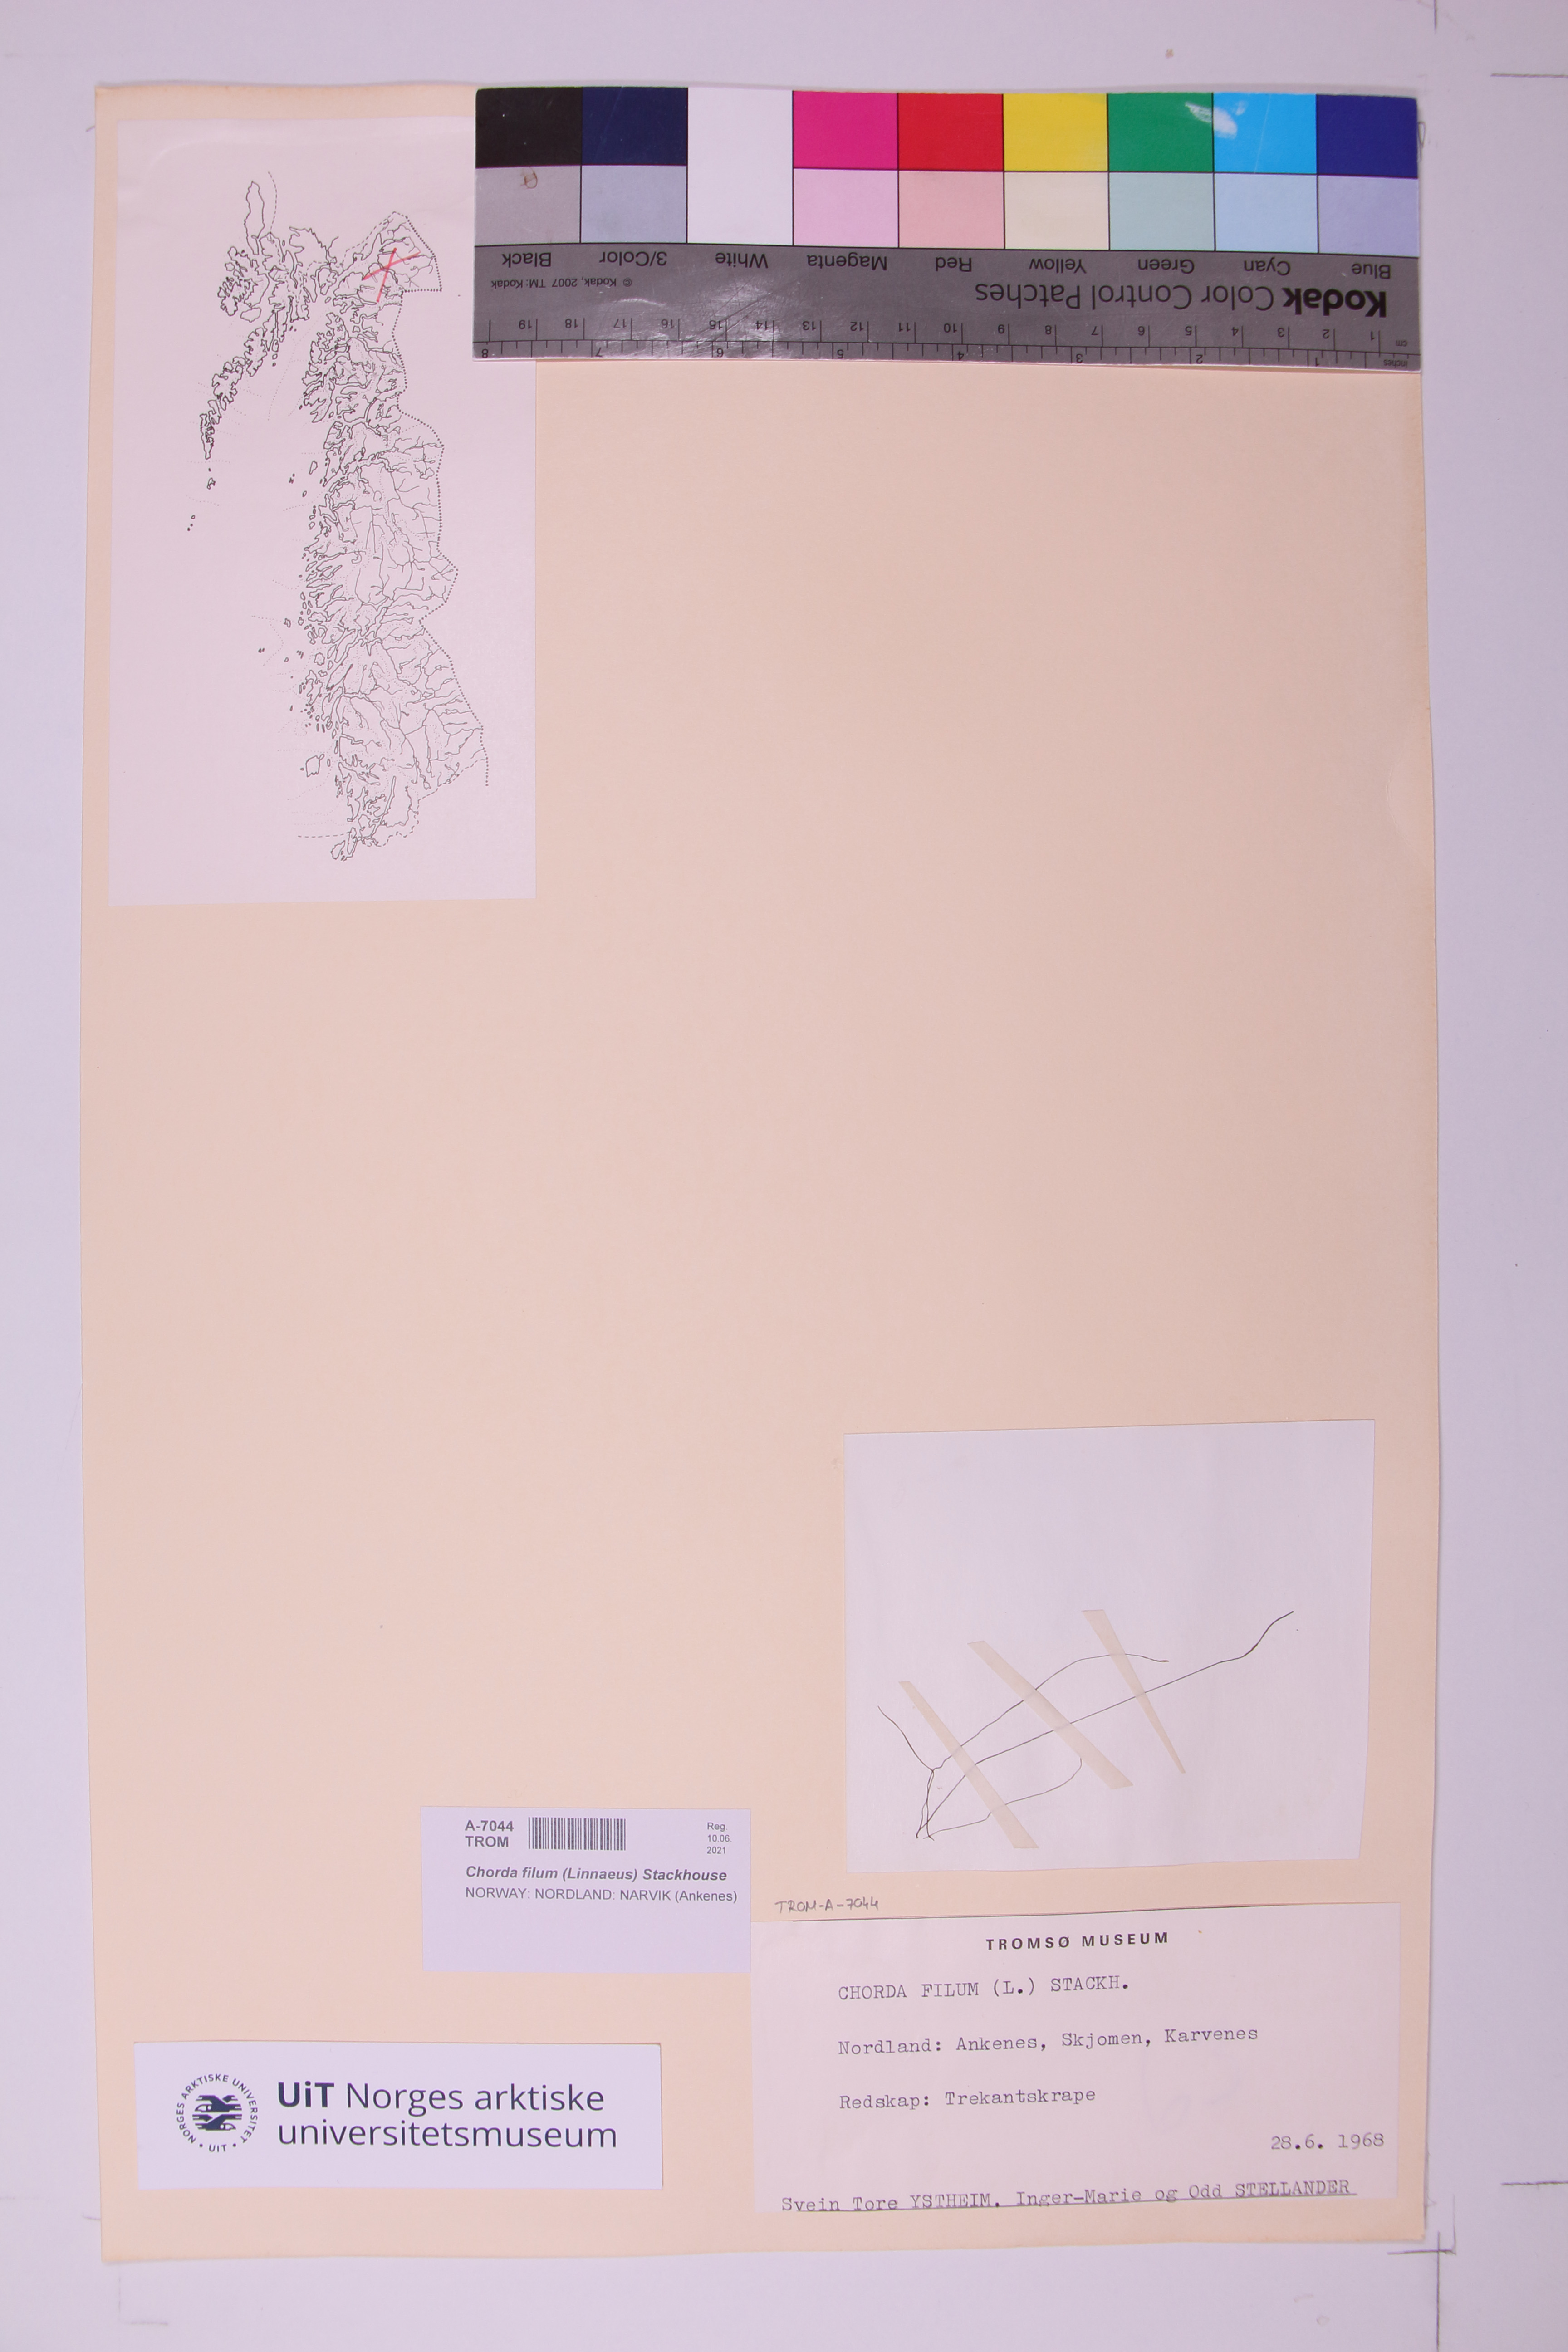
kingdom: Chromista
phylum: Ochrophyta
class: Phaeophyceae
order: Laminariales
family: Chordaceae
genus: Chorda
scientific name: Chorda filum
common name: Mermaid's tresses
